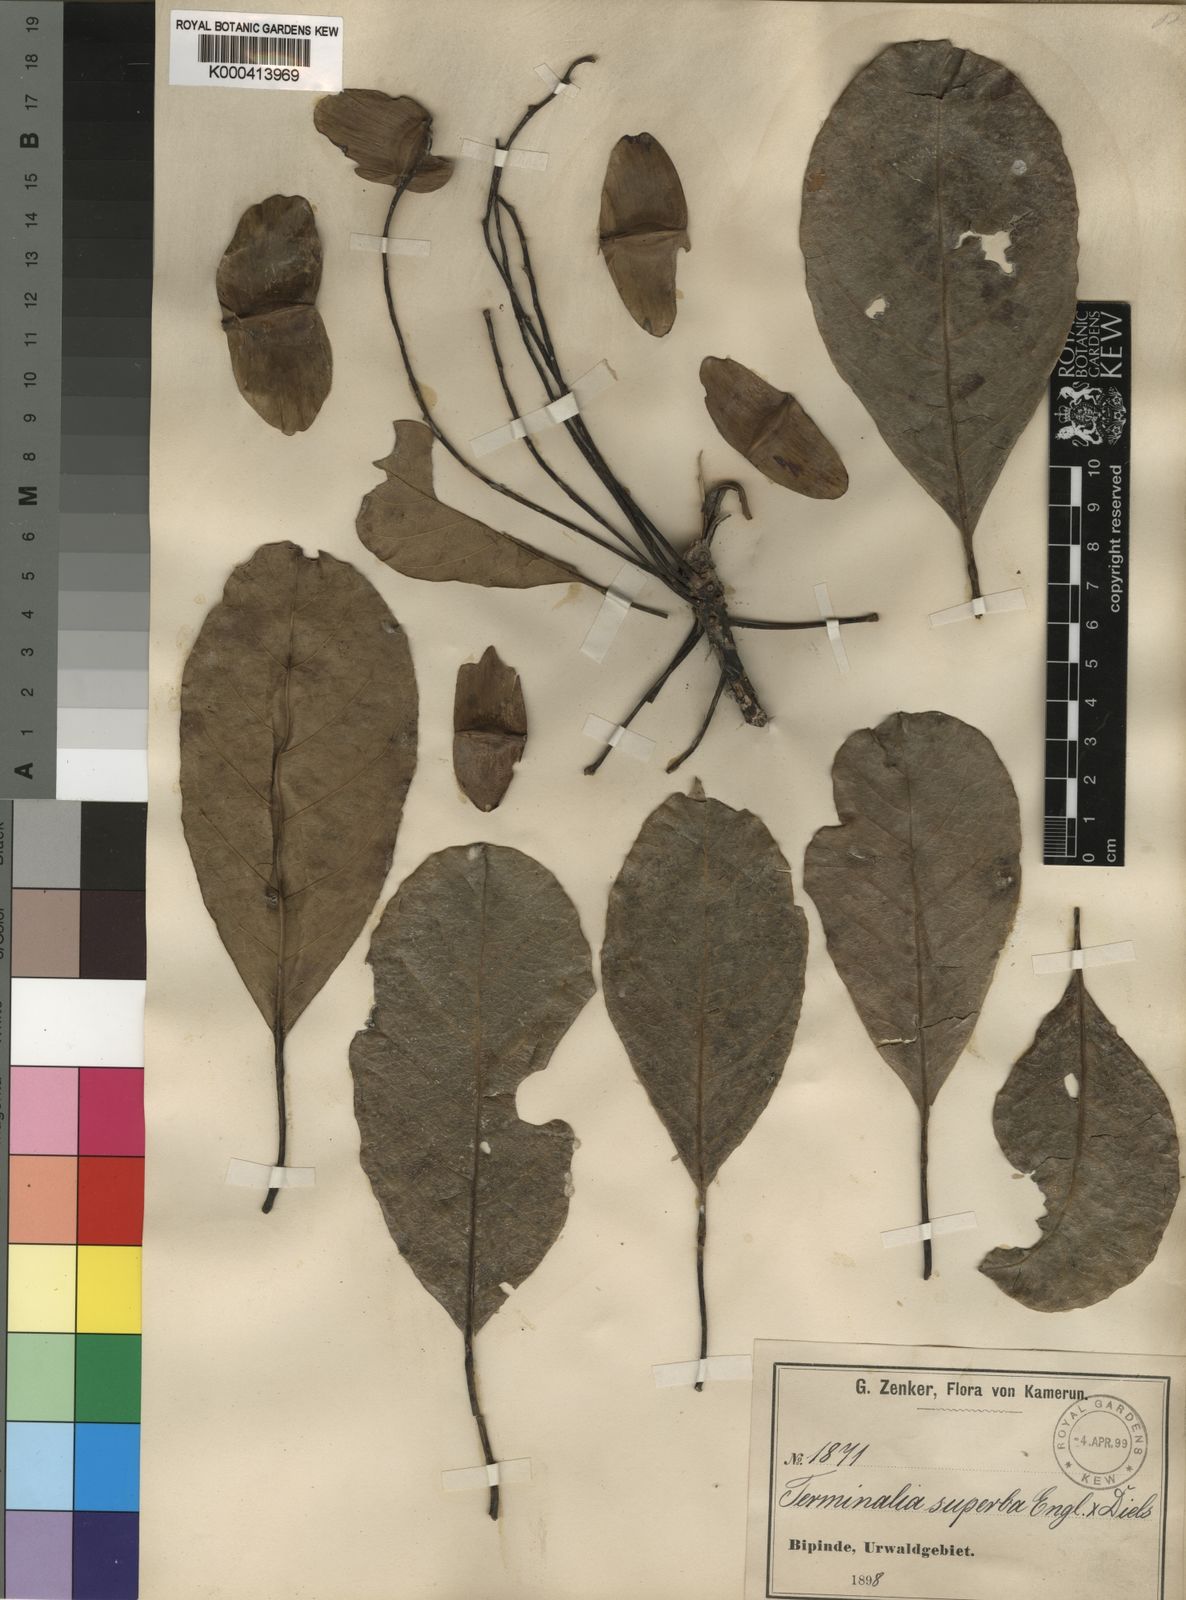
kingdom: Plantae
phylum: Tracheophyta
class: Magnoliopsida
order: Myrtales
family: Combretaceae
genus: Terminalia
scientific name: Terminalia superba
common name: White afara
